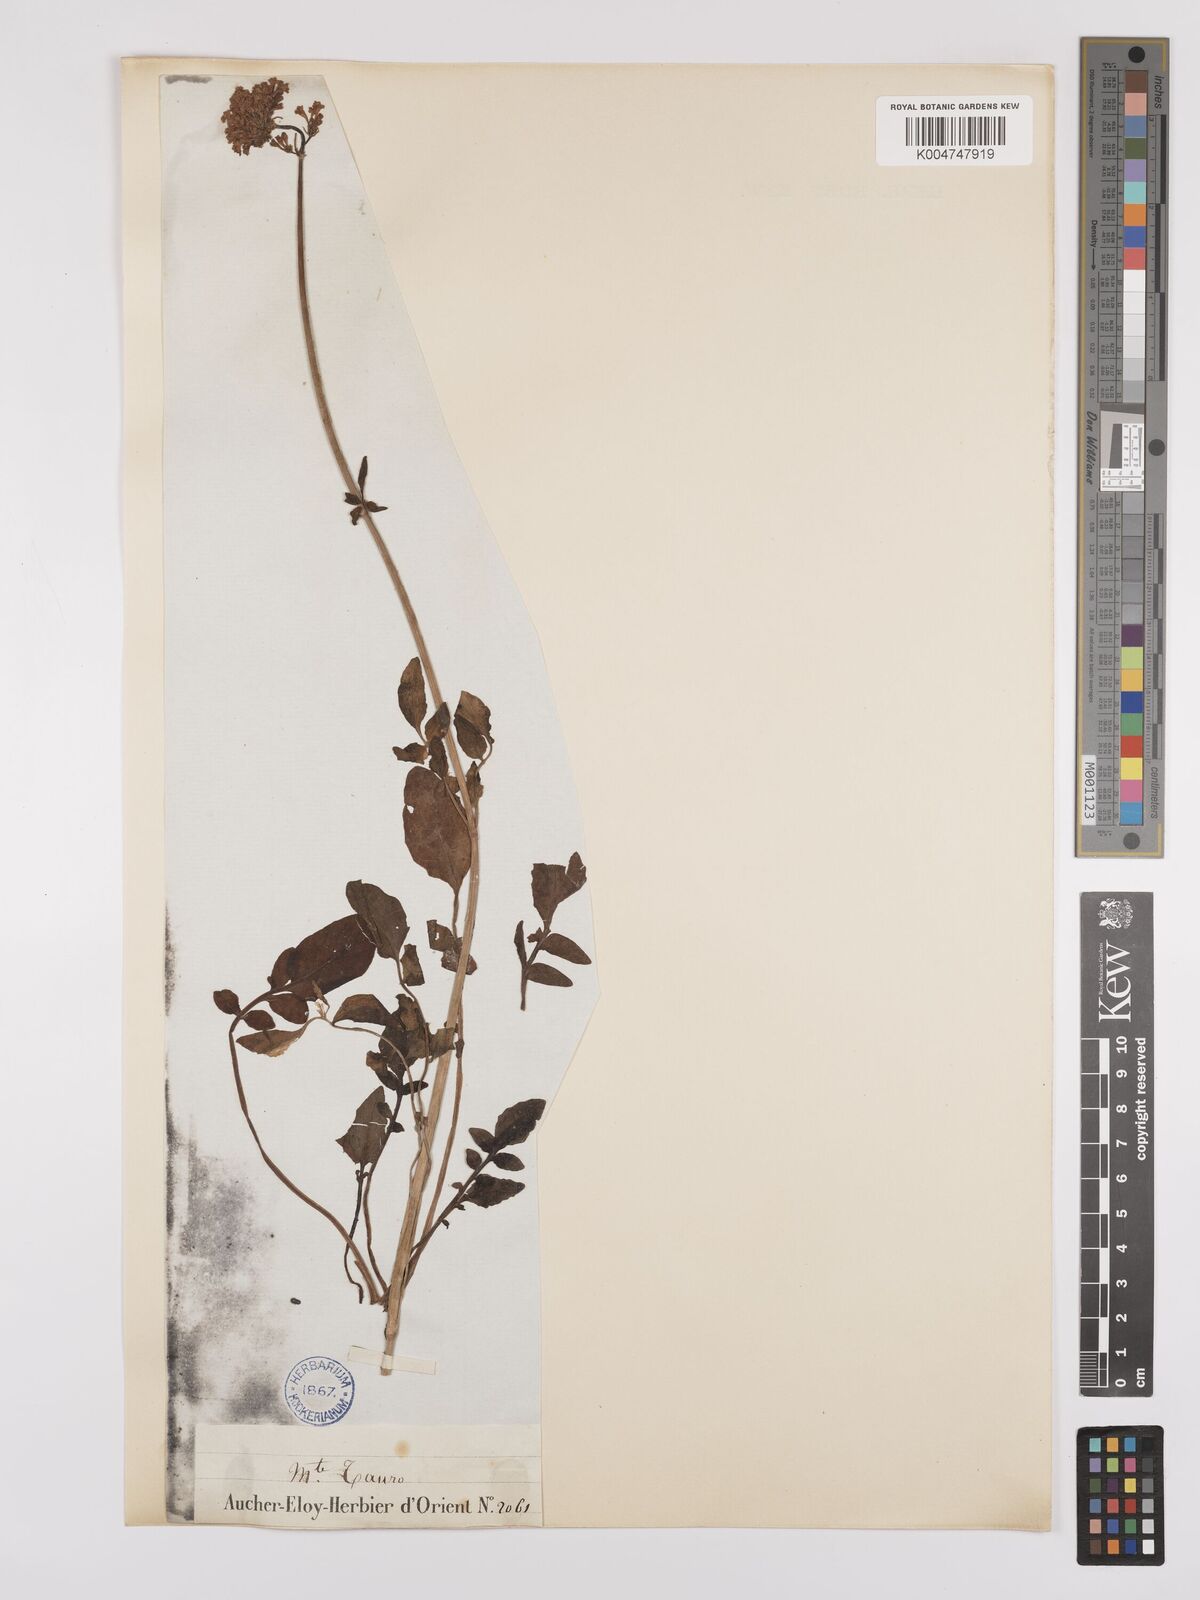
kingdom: Plantae
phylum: Tracheophyta
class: Magnoliopsida
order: Dipsacales
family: Caprifoliaceae
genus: Valeriana
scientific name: Valeriana
